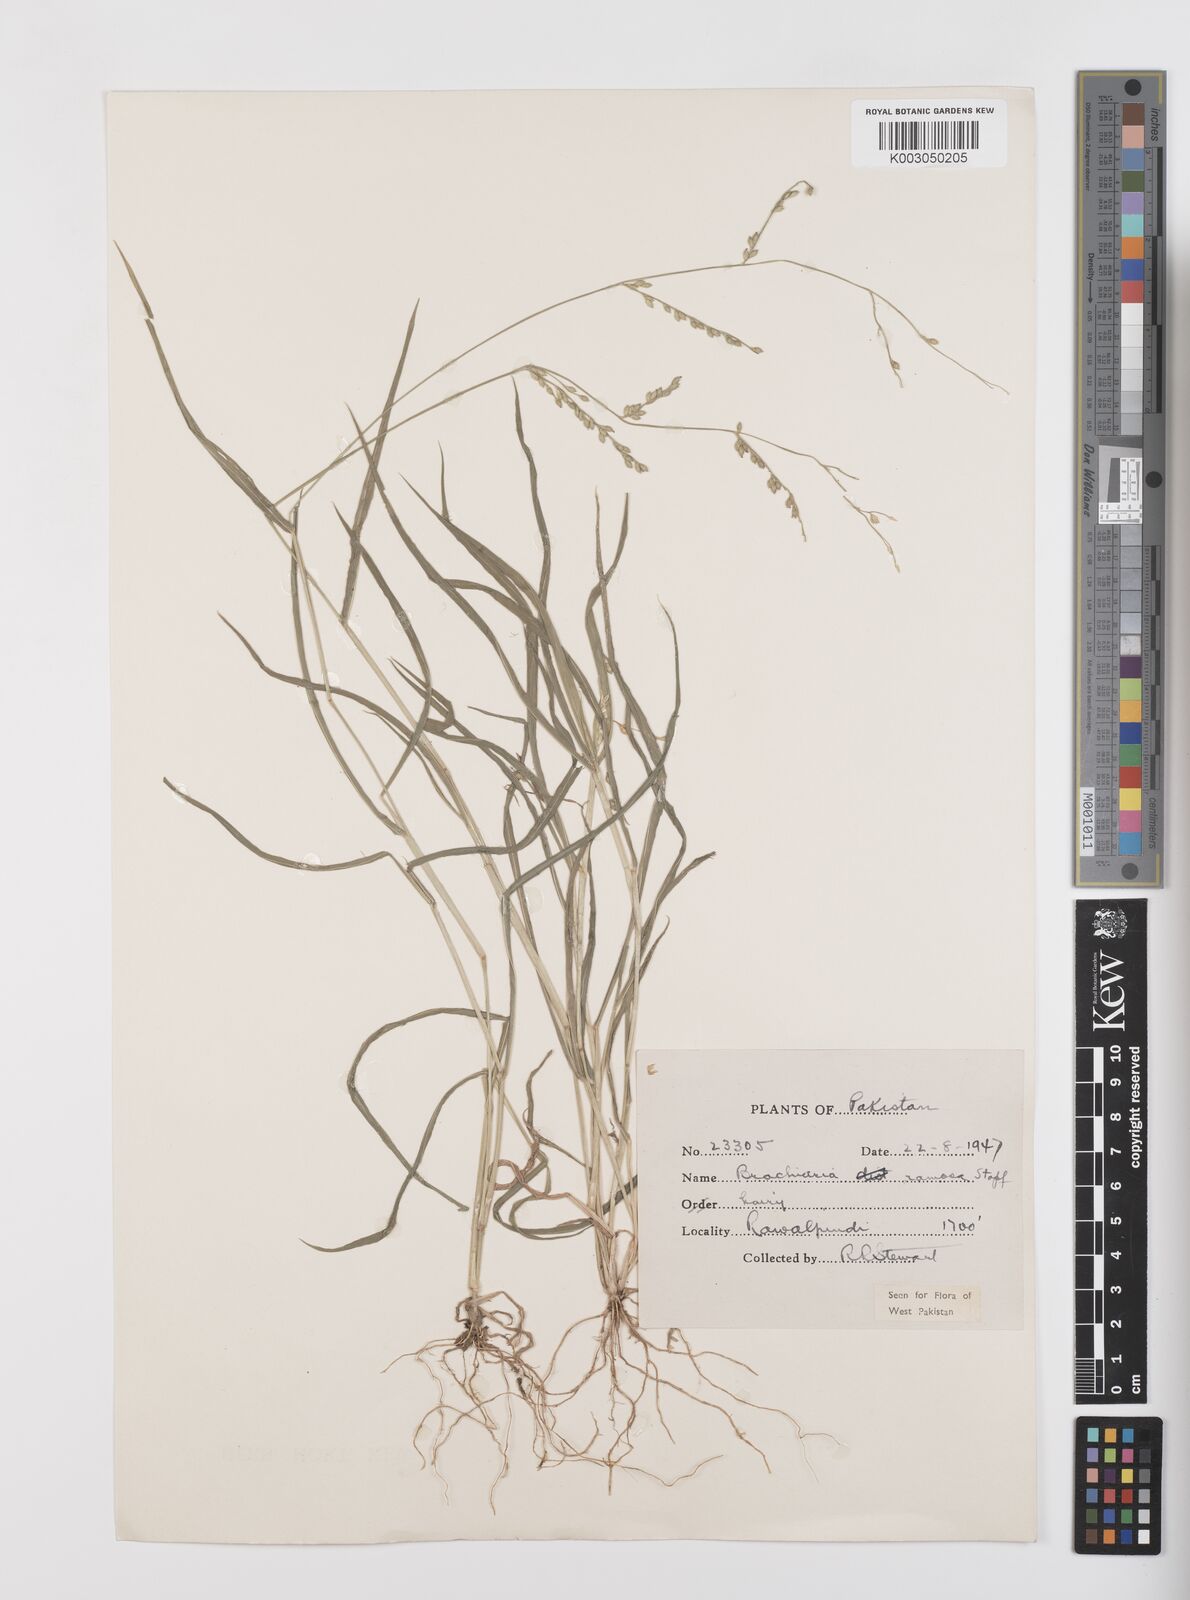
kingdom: Plantae
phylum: Tracheophyta
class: Liliopsida
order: Poales
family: Poaceae
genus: Urochloa
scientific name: Urochloa ramosa
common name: Browntop millet
